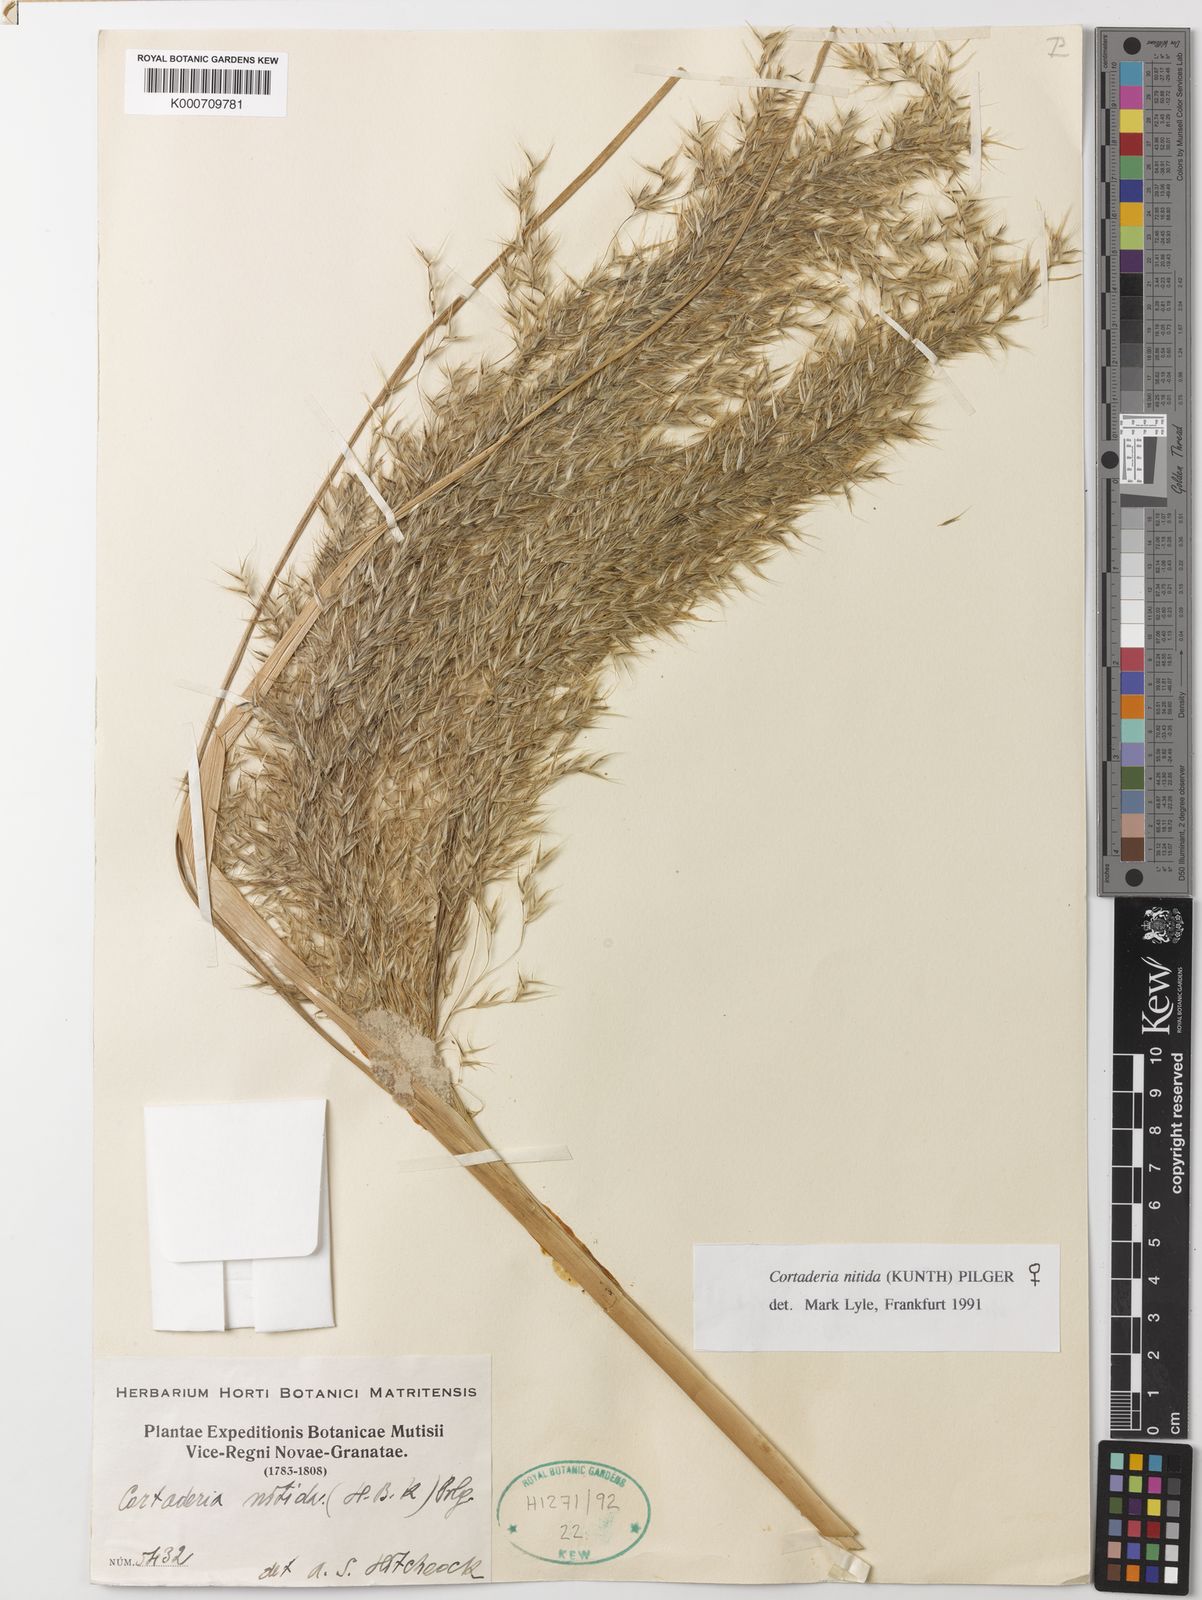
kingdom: Plantae
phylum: Tracheophyta
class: Liliopsida
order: Poales
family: Poaceae
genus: Cortaderia
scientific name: Cortaderia nitida
